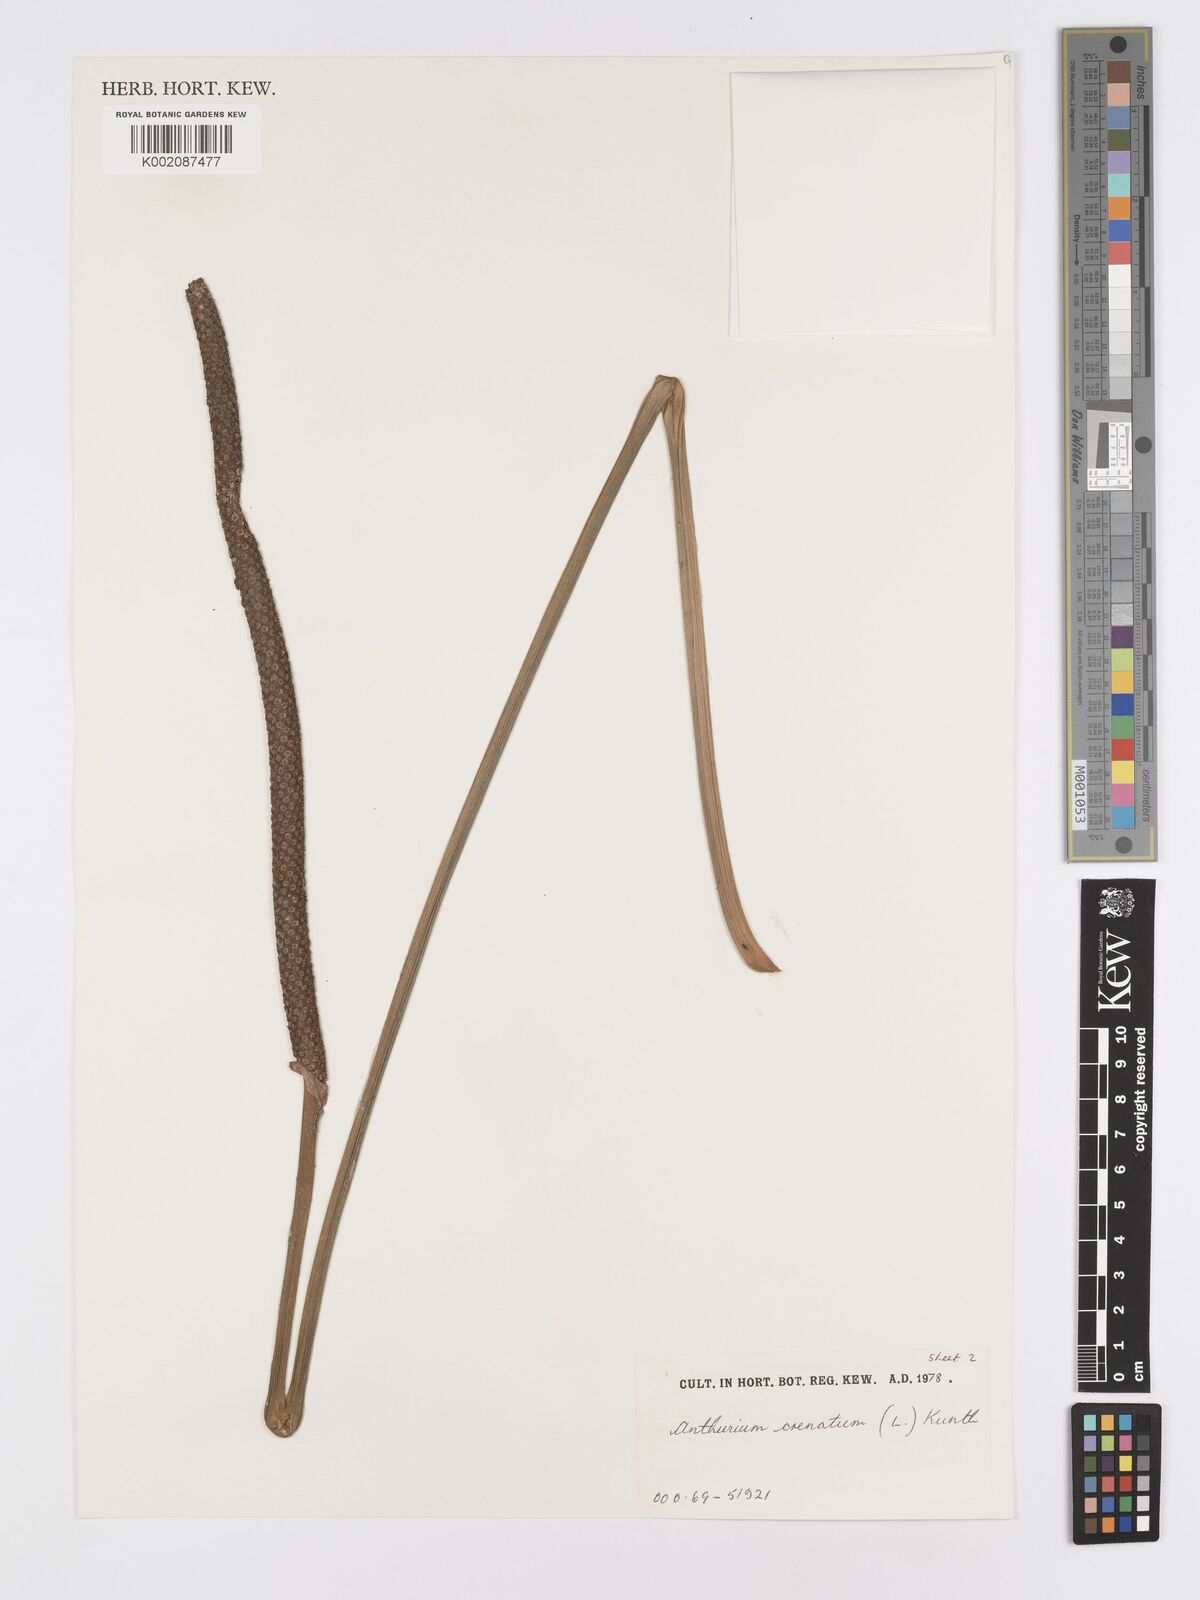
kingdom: Plantae
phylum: Tracheophyta
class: Liliopsida
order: Alismatales
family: Araceae
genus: Anthurium
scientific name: Anthurium crenatum
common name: Scalloped laceleaf
